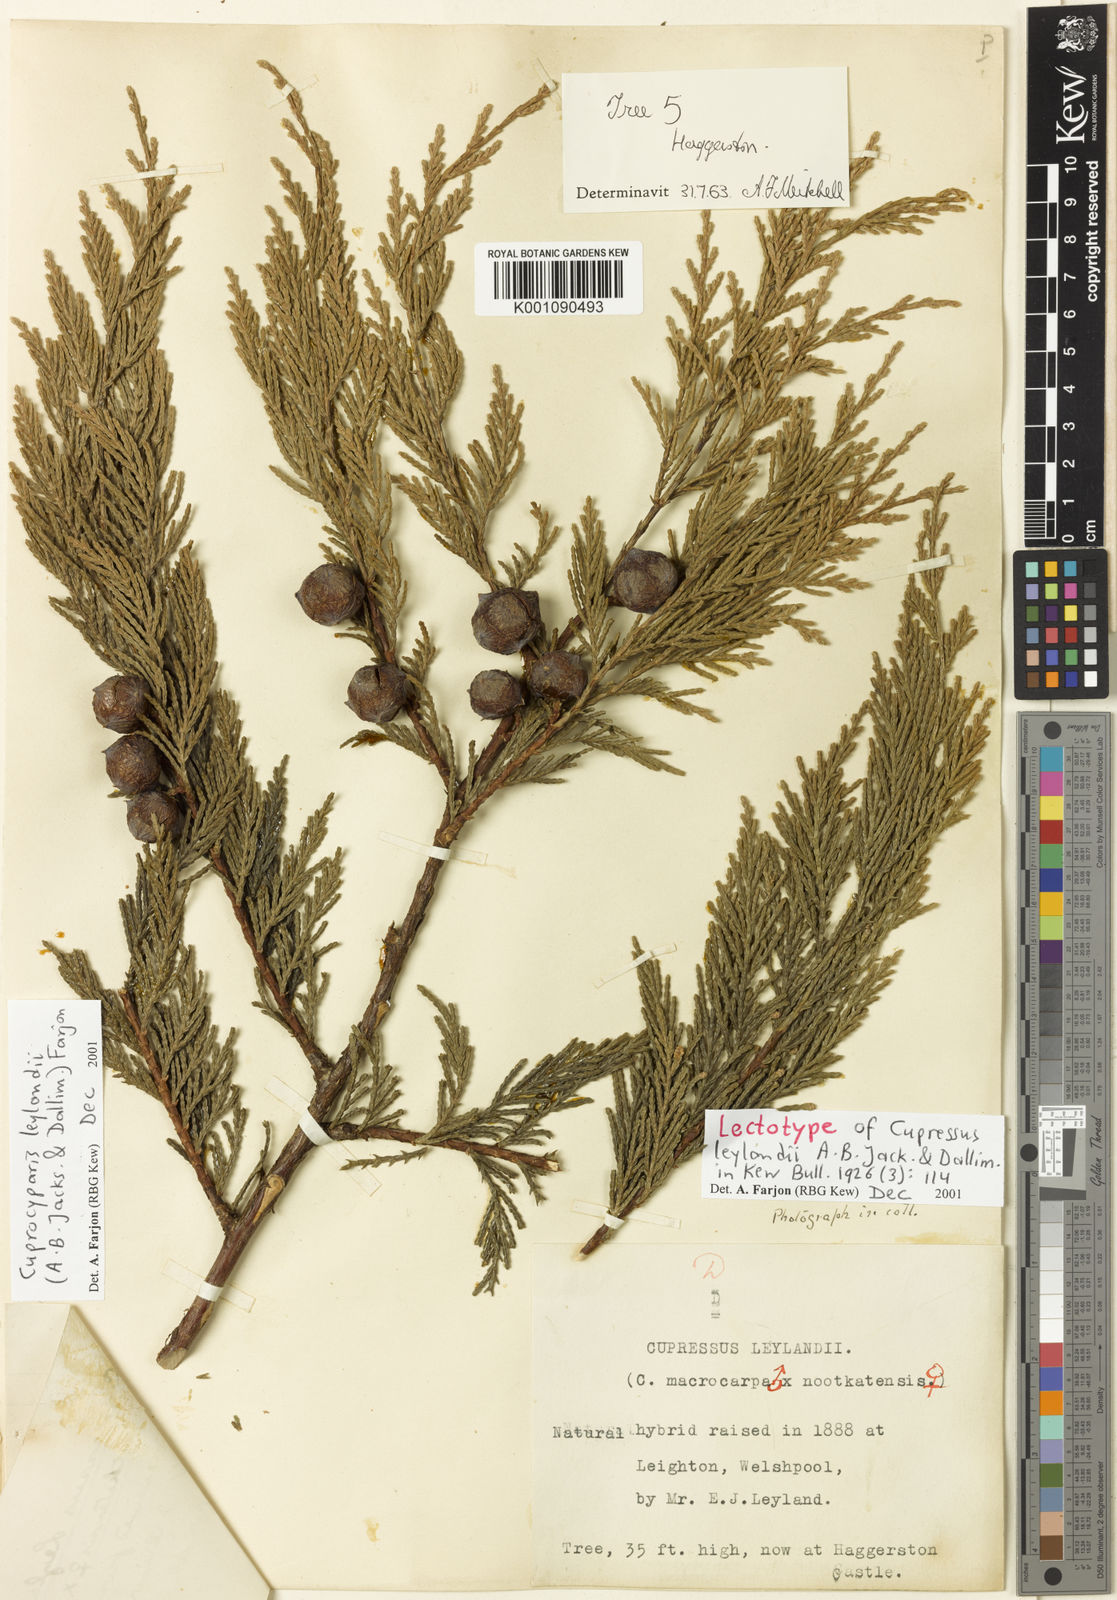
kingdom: Plantae
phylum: Tracheophyta
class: Pinopsida
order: Pinales
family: Cupressaceae
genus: Hesperotropsis
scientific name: Hesperotropsis leylandii
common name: Leyland cypress
